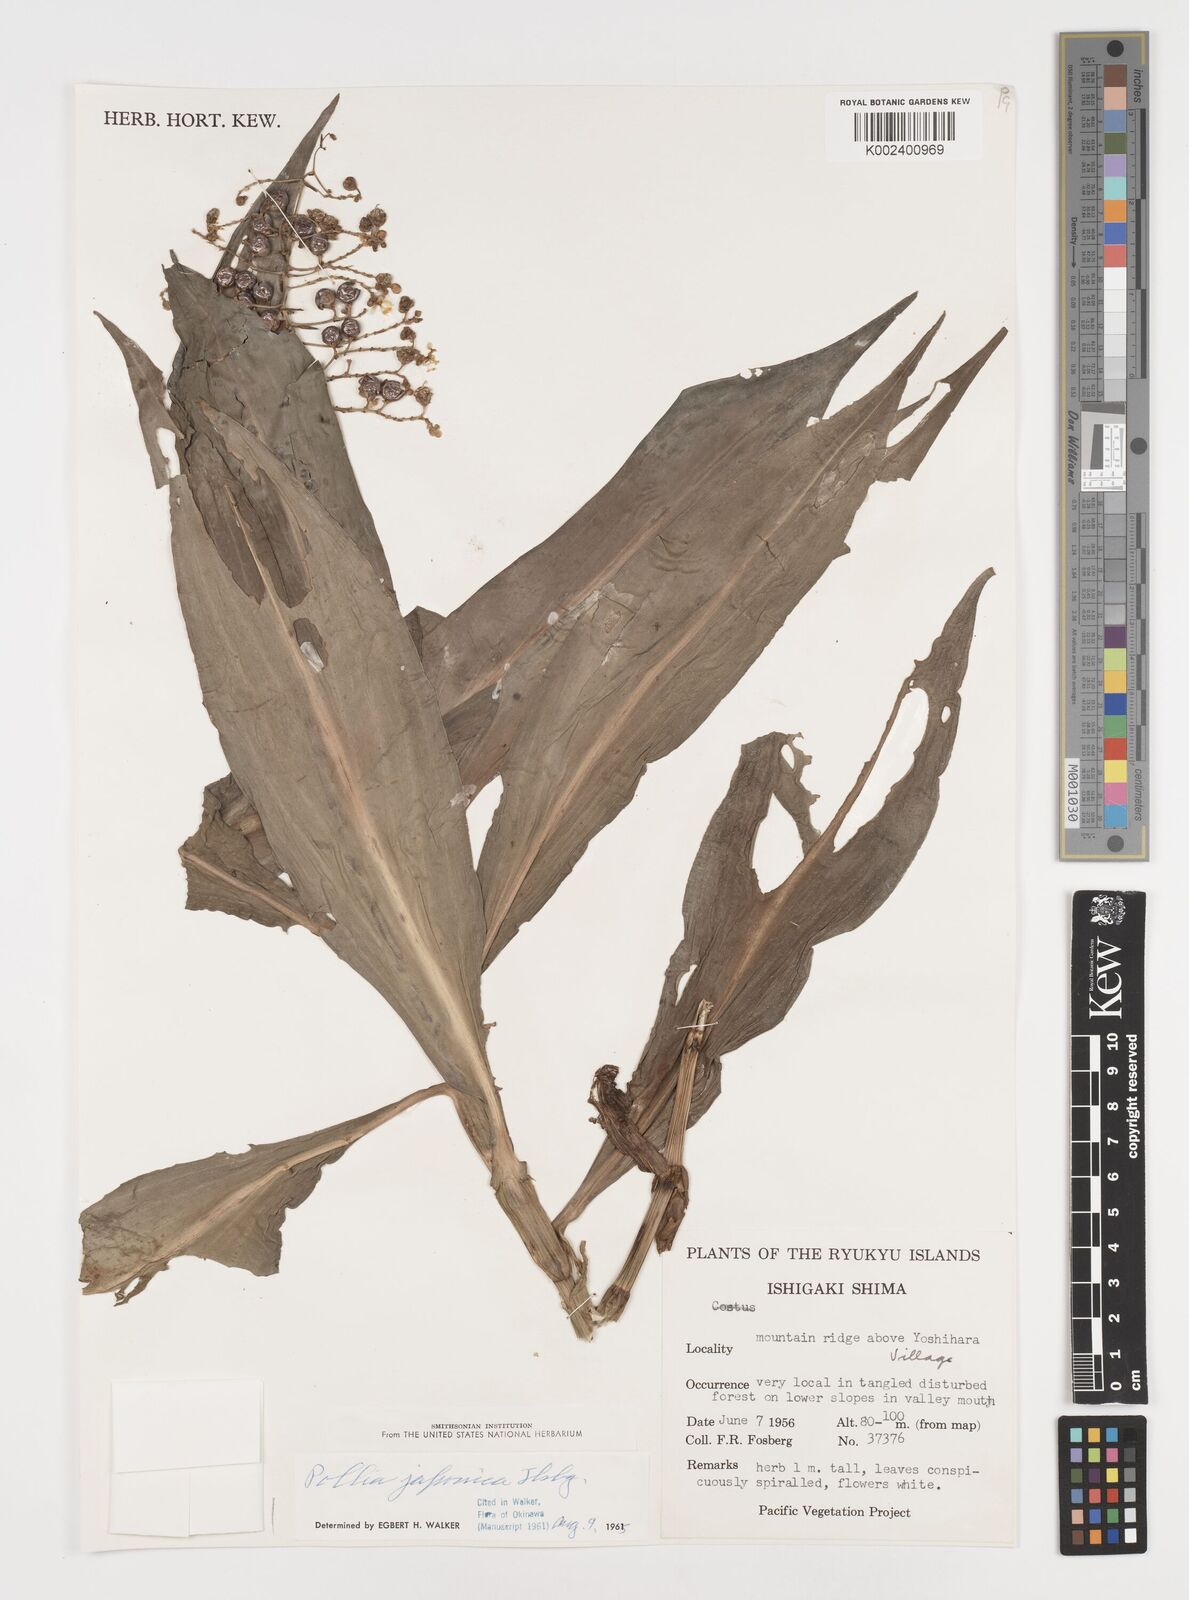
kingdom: Plantae
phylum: Tracheophyta
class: Liliopsida
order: Commelinales
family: Commelinaceae
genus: Pollia
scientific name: Pollia japonica
